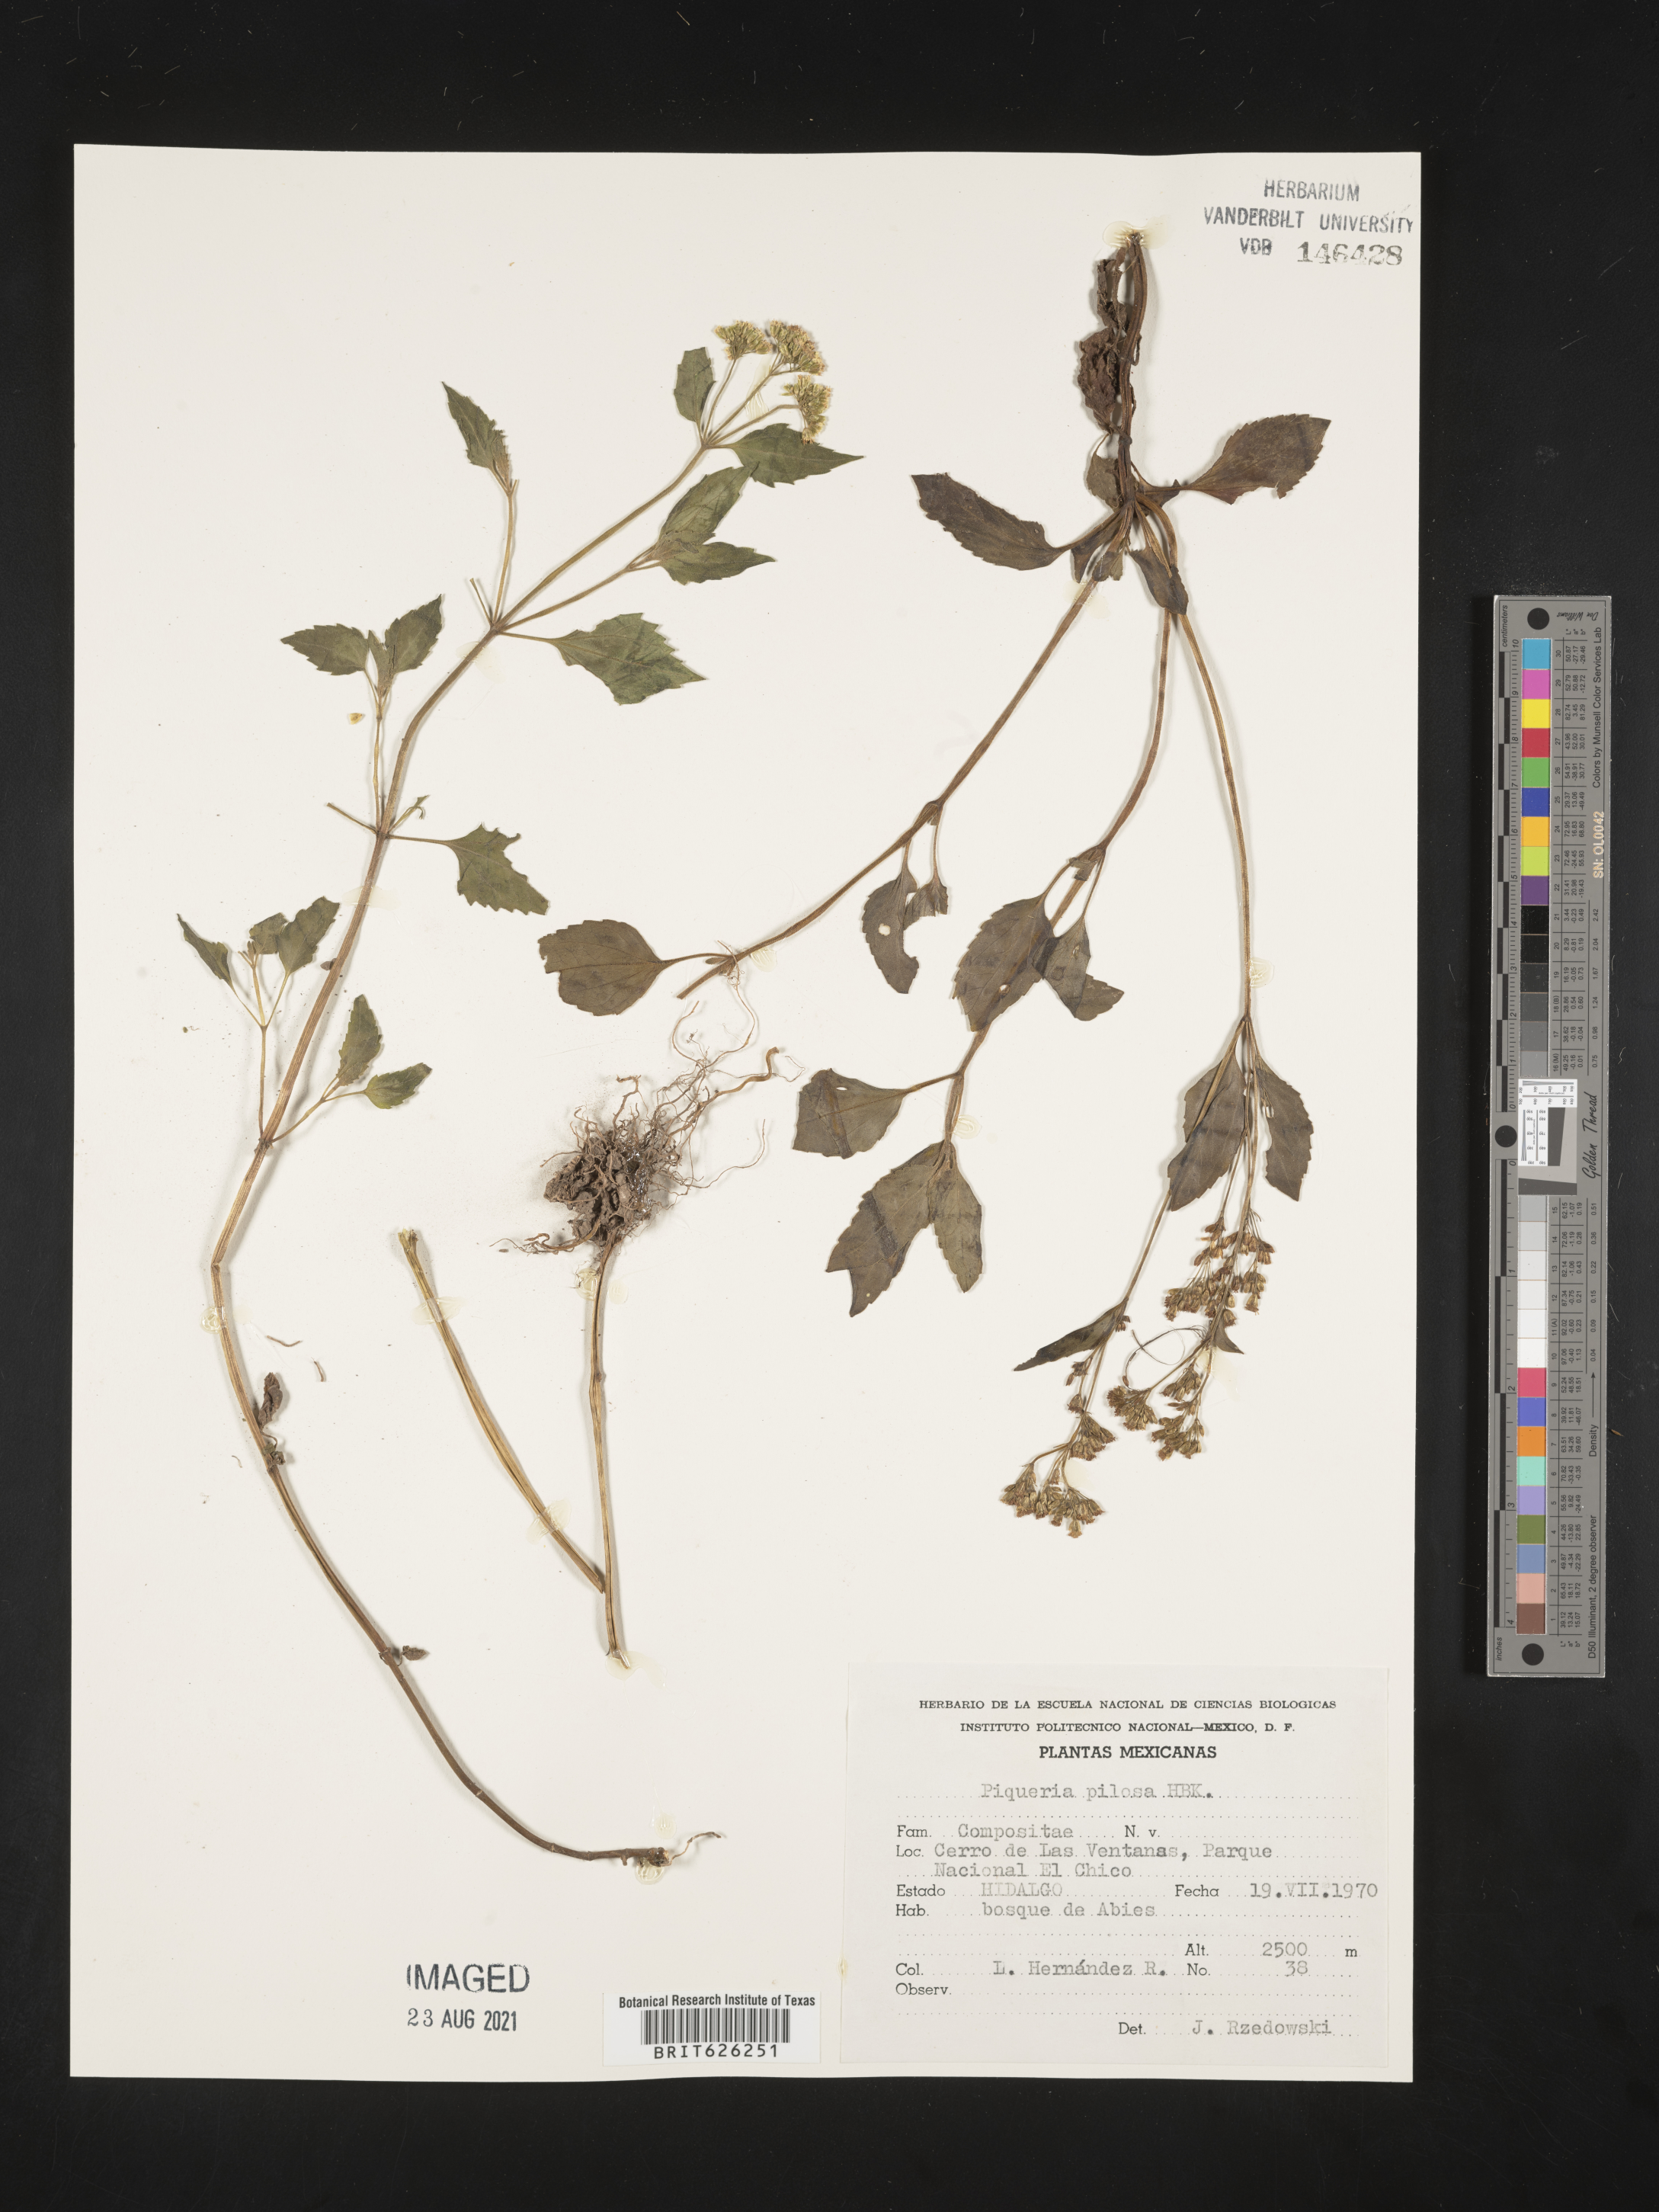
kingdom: Plantae
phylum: Tracheophyta
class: Magnoliopsida
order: Asterales
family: Asteraceae
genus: Piqueria
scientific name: Piqueria
